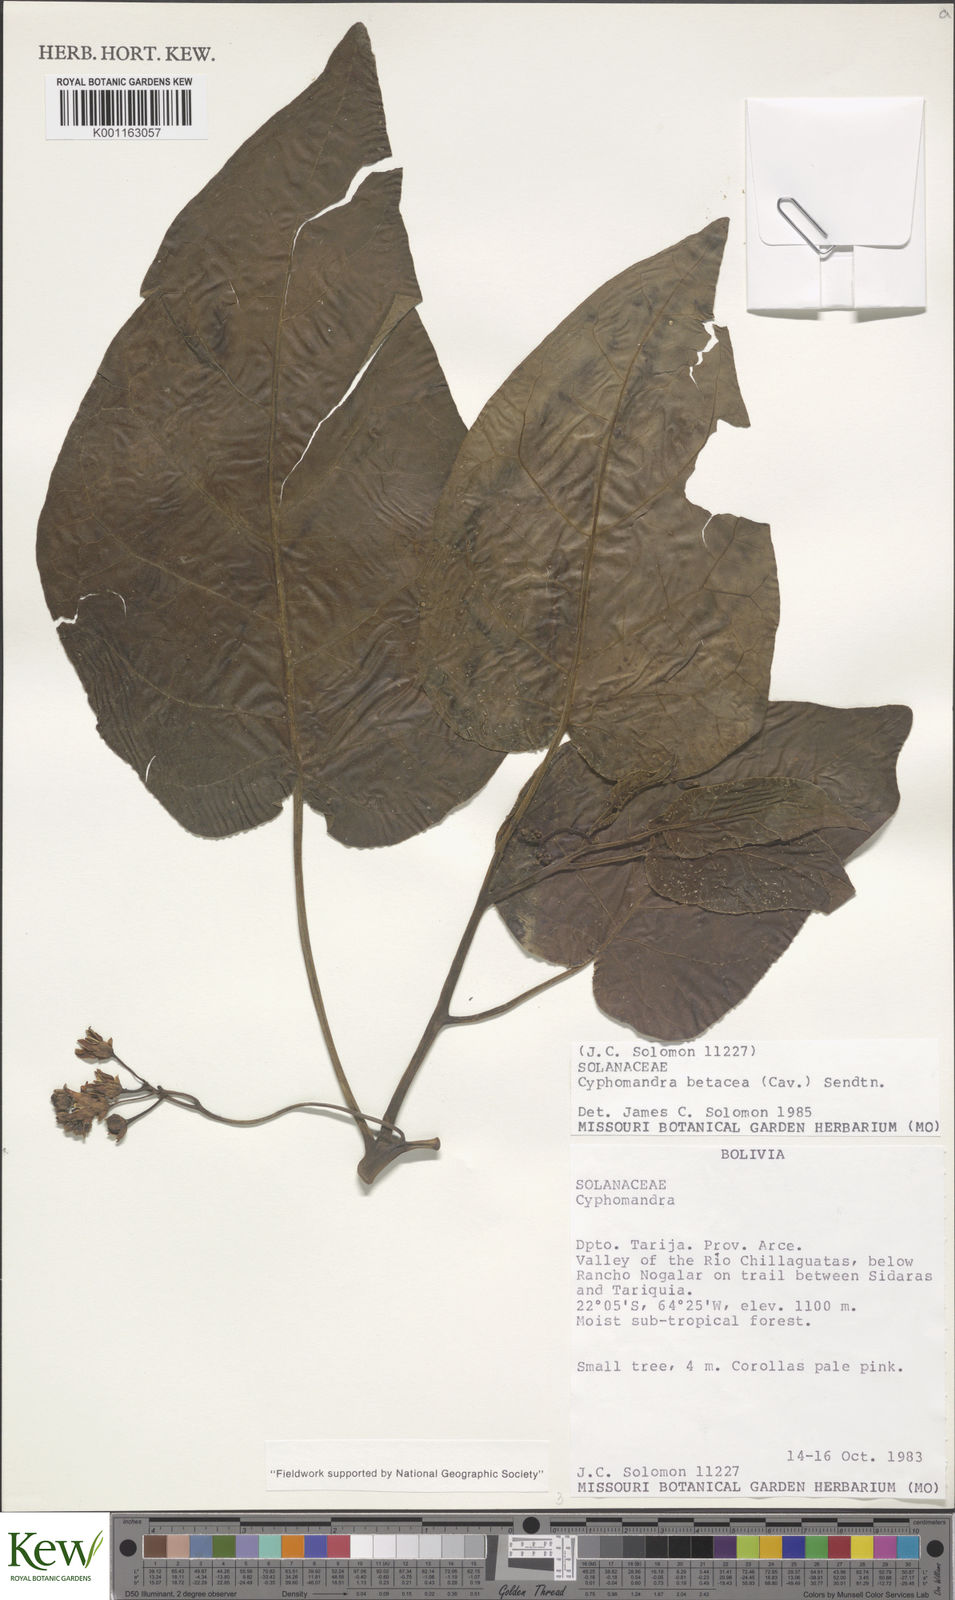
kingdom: Plantae
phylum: Tracheophyta
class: Magnoliopsida
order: Solanales
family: Solanaceae
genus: Solanum
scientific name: Solanum betaceum
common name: Tamarillo
